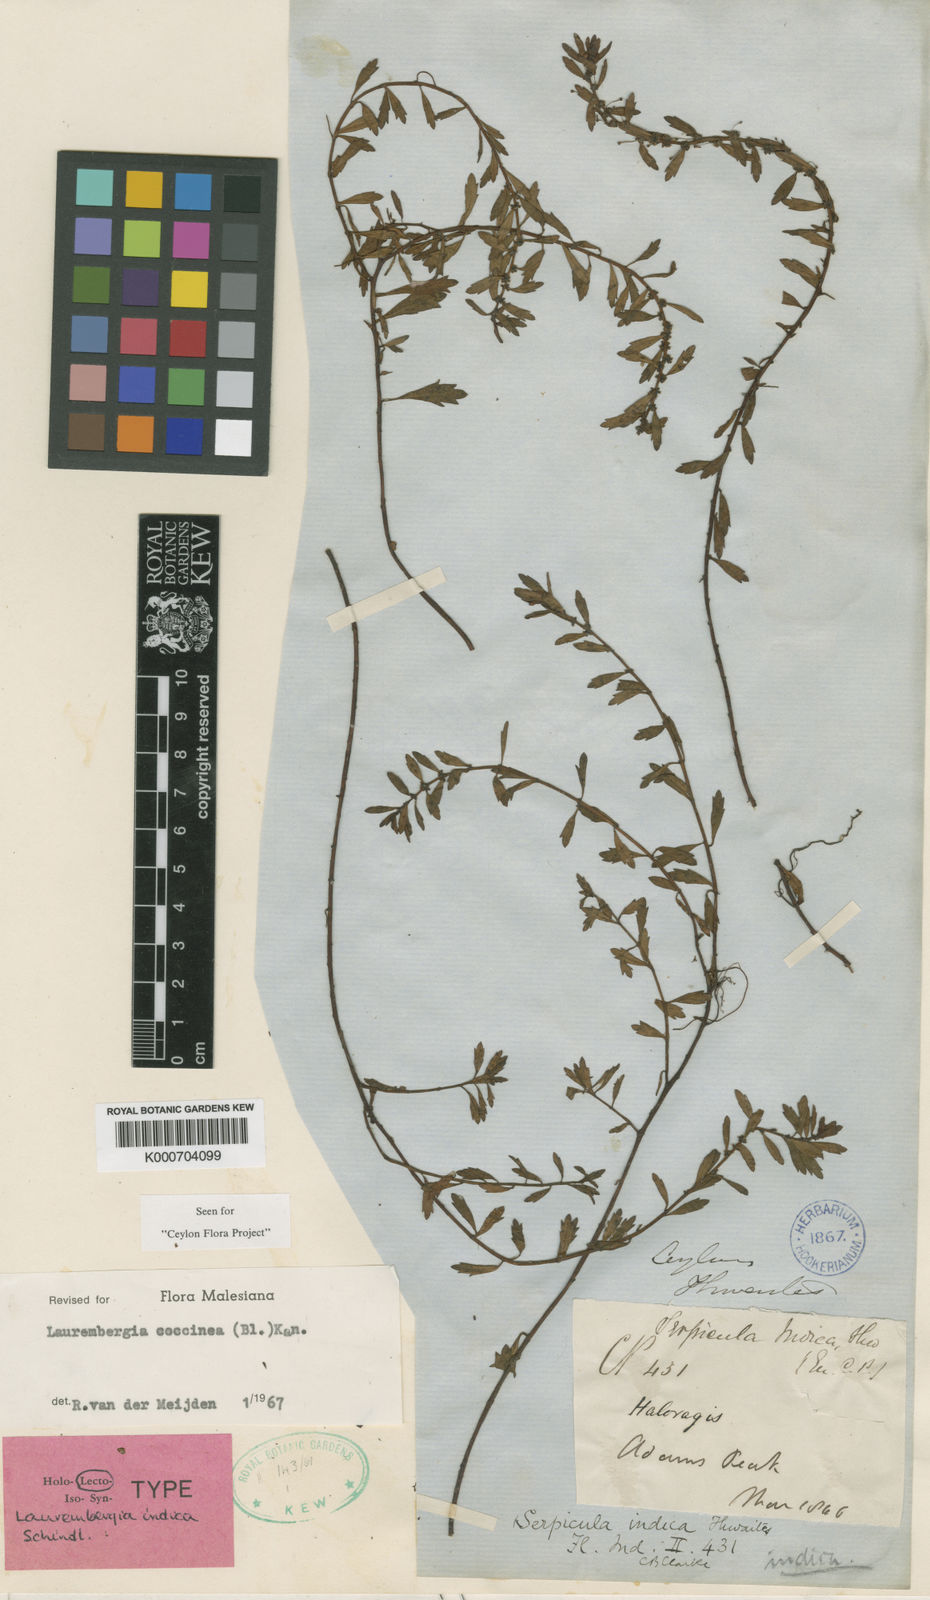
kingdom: Plantae
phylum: Tracheophyta
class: Magnoliopsida
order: Saxifragales
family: Haloragaceae
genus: Laurembergia
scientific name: Laurembergia coccinea
